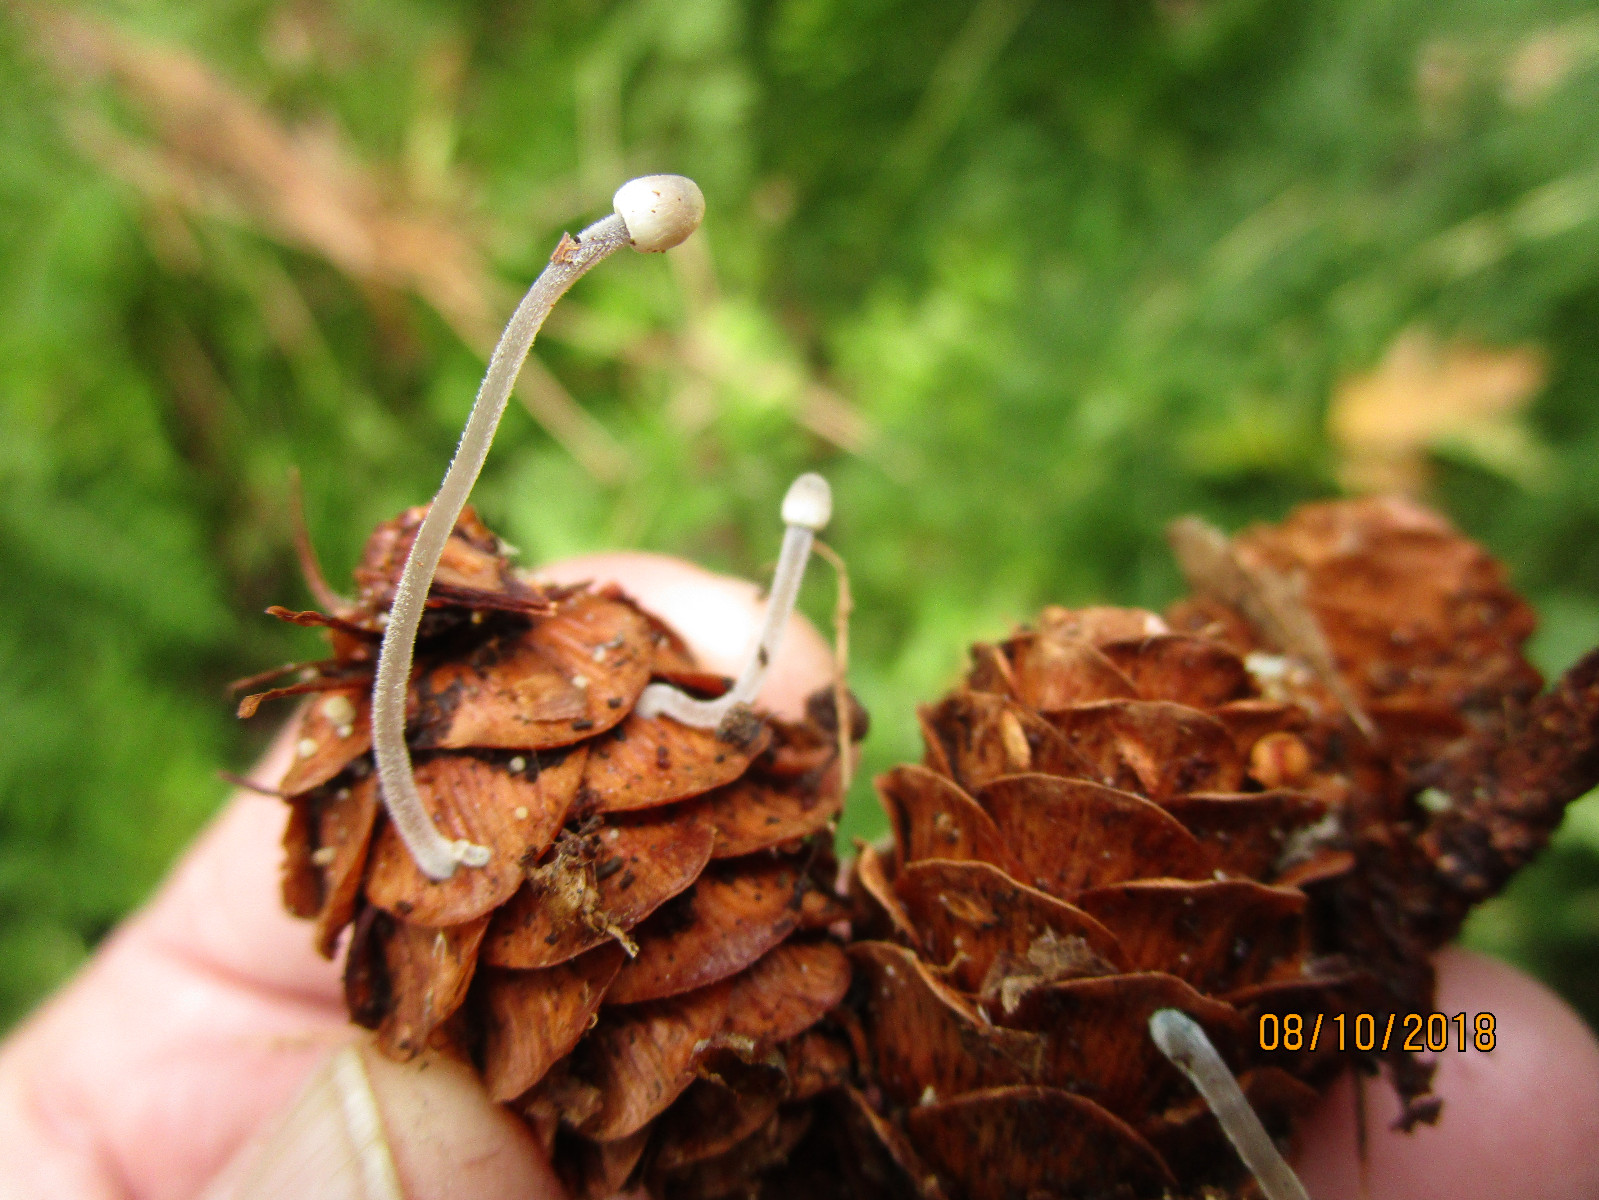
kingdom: Fungi
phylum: Basidiomycota
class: Agaricomycetes
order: Agaricales
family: Mycenaceae
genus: Mycena
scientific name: Mycena amicta
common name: iris-huesvamp
